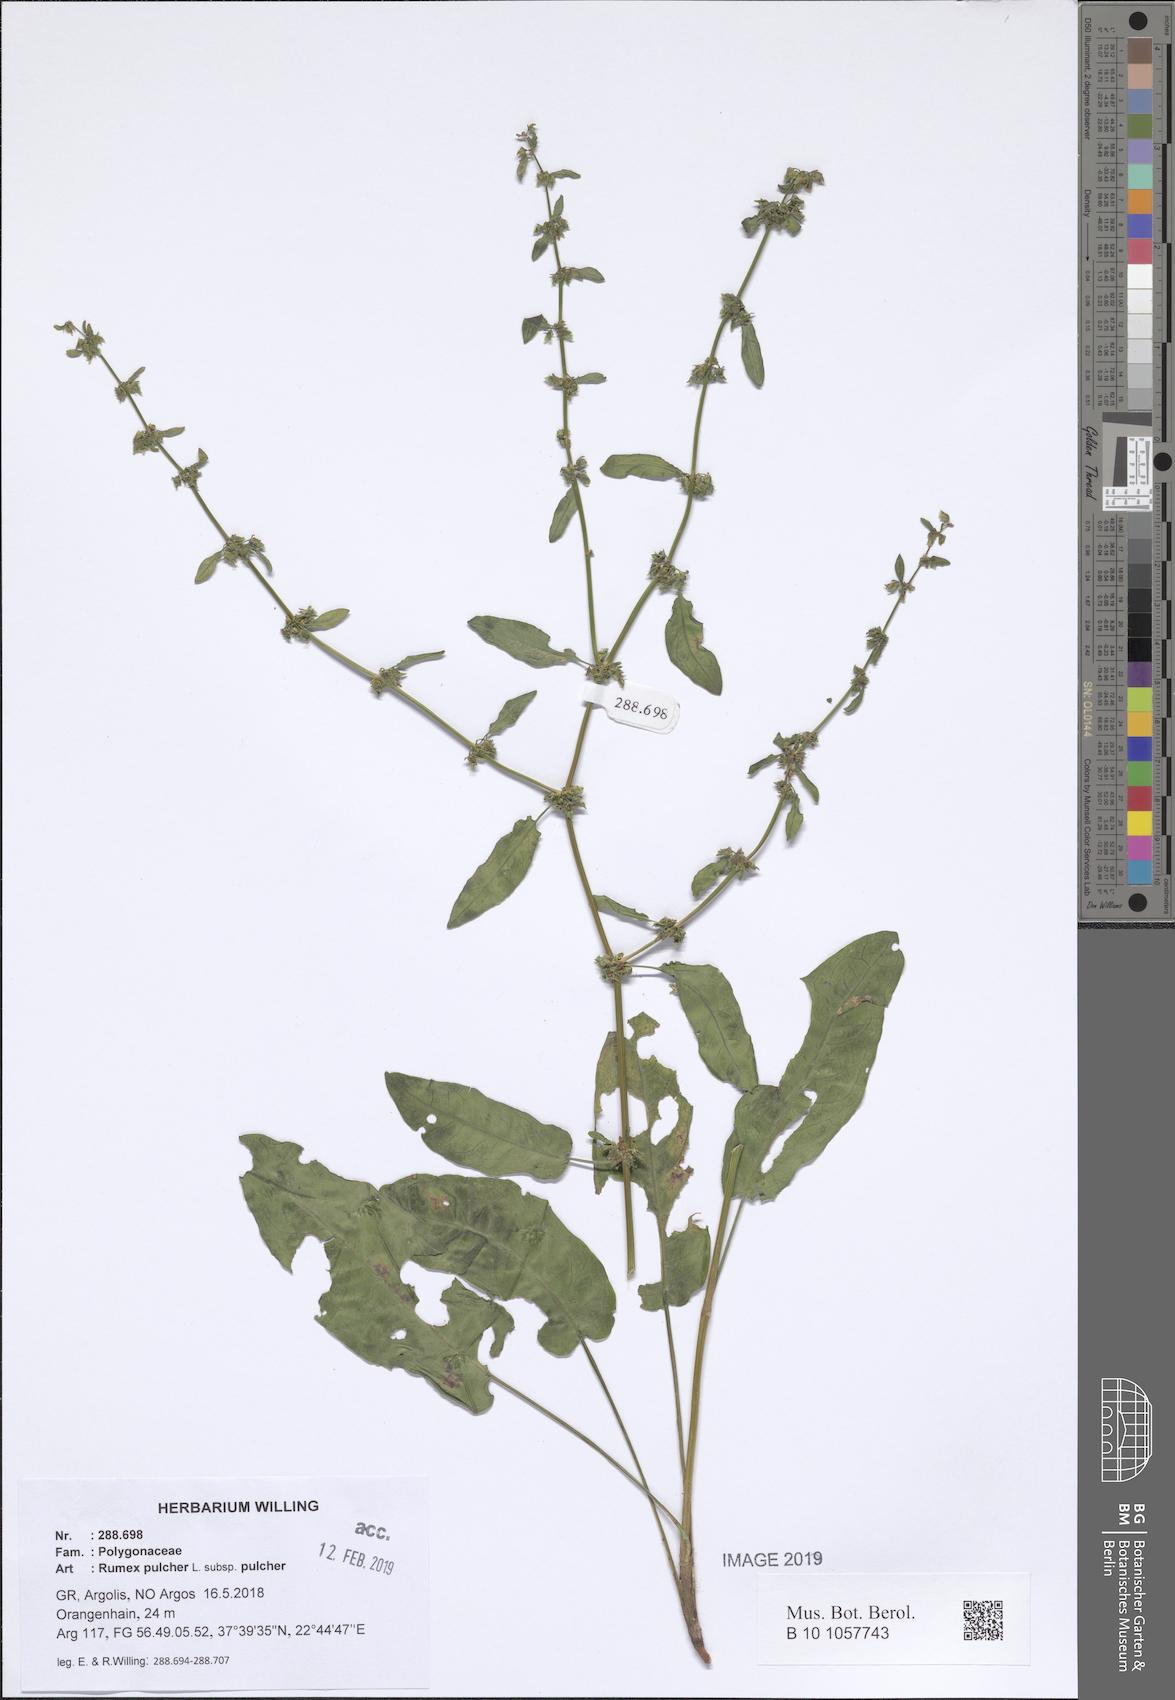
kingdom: Plantae
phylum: Tracheophyta
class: Magnoliopsida
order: Caryophyllales
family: Polygonaceae
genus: Rumex
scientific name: Rumex pulcher
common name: Fiddle dock
